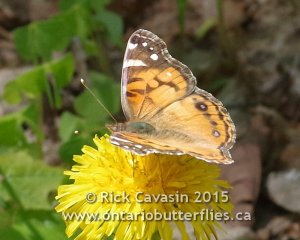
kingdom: Animalia
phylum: Arthropoda
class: Insecta
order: Lepidoptera
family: Nymphalidae
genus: Vanessa
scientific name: Vanessa virginiensis
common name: American Lady
